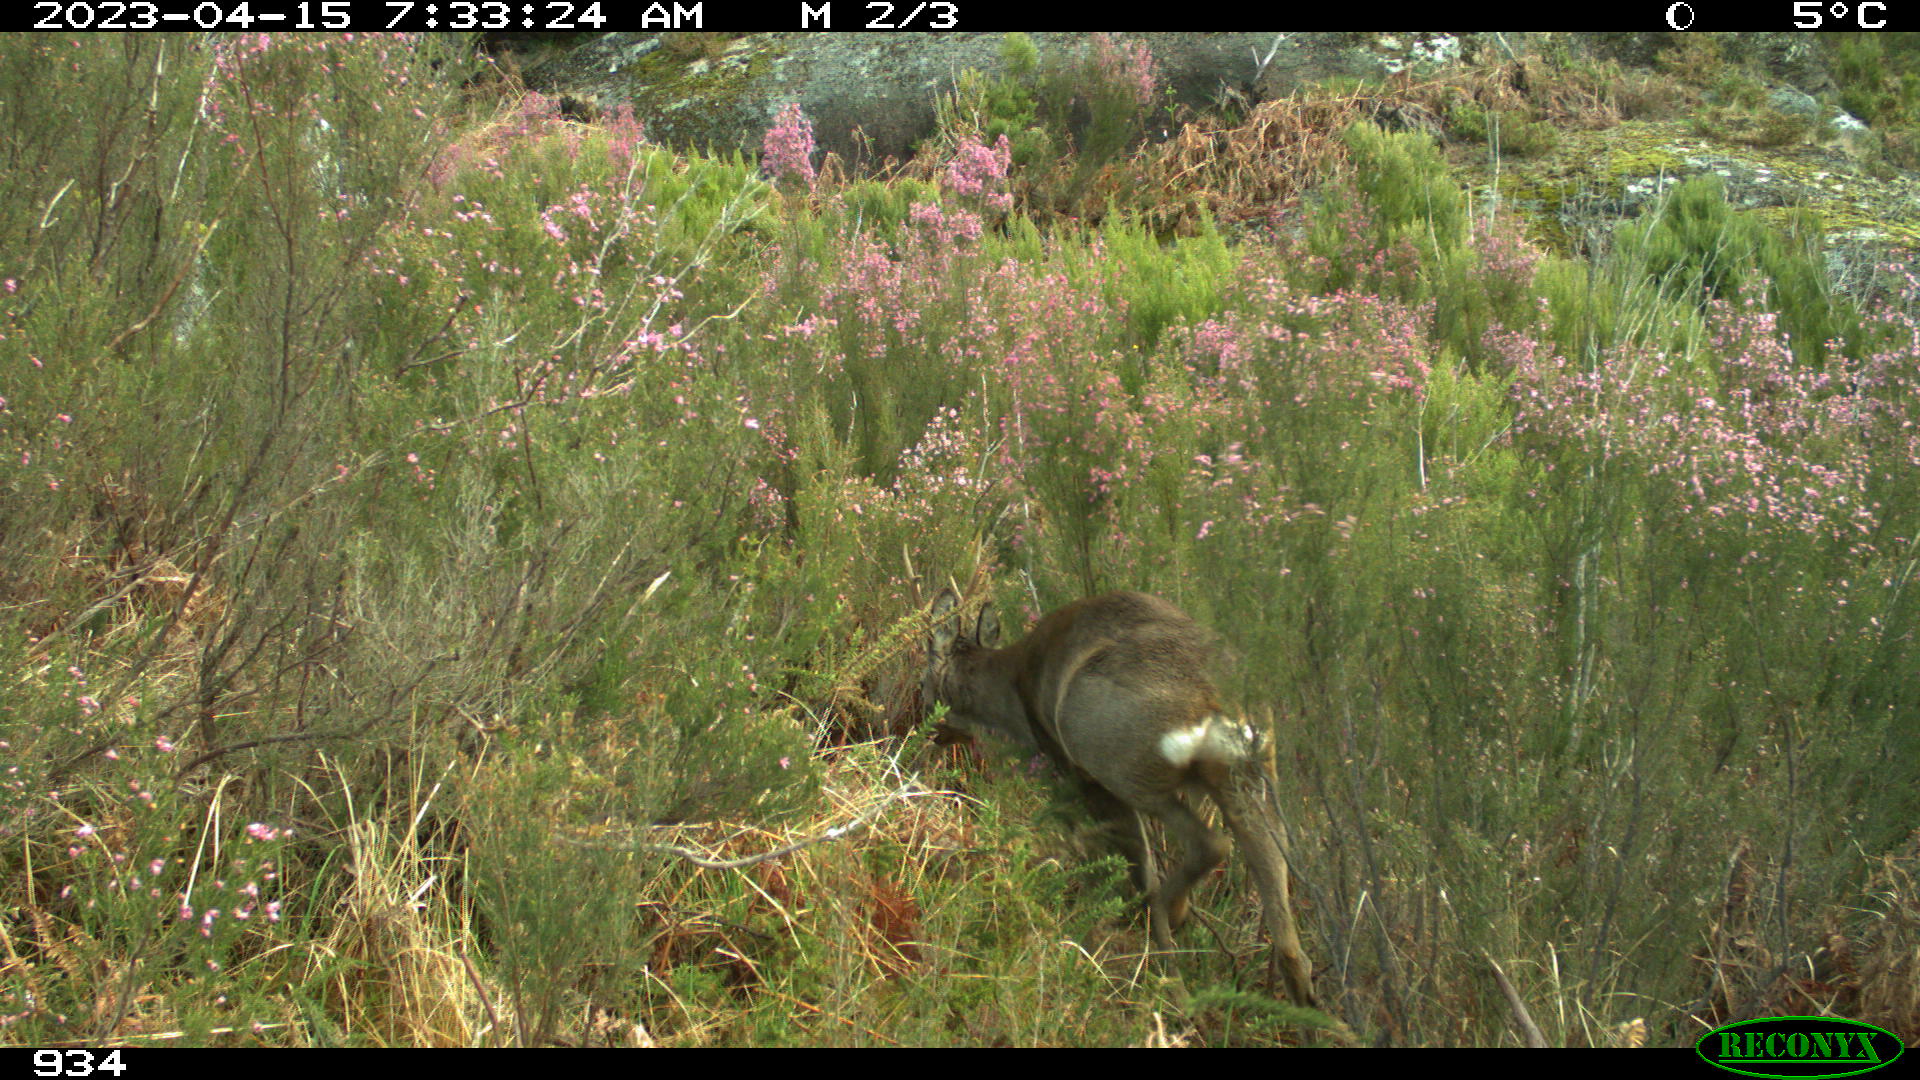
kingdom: Animalia
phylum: Chordata
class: Mammalia
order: Artiodactyla
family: Cervidae
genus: Capreolus
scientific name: Capreolus capreolus
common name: Western roe deer
